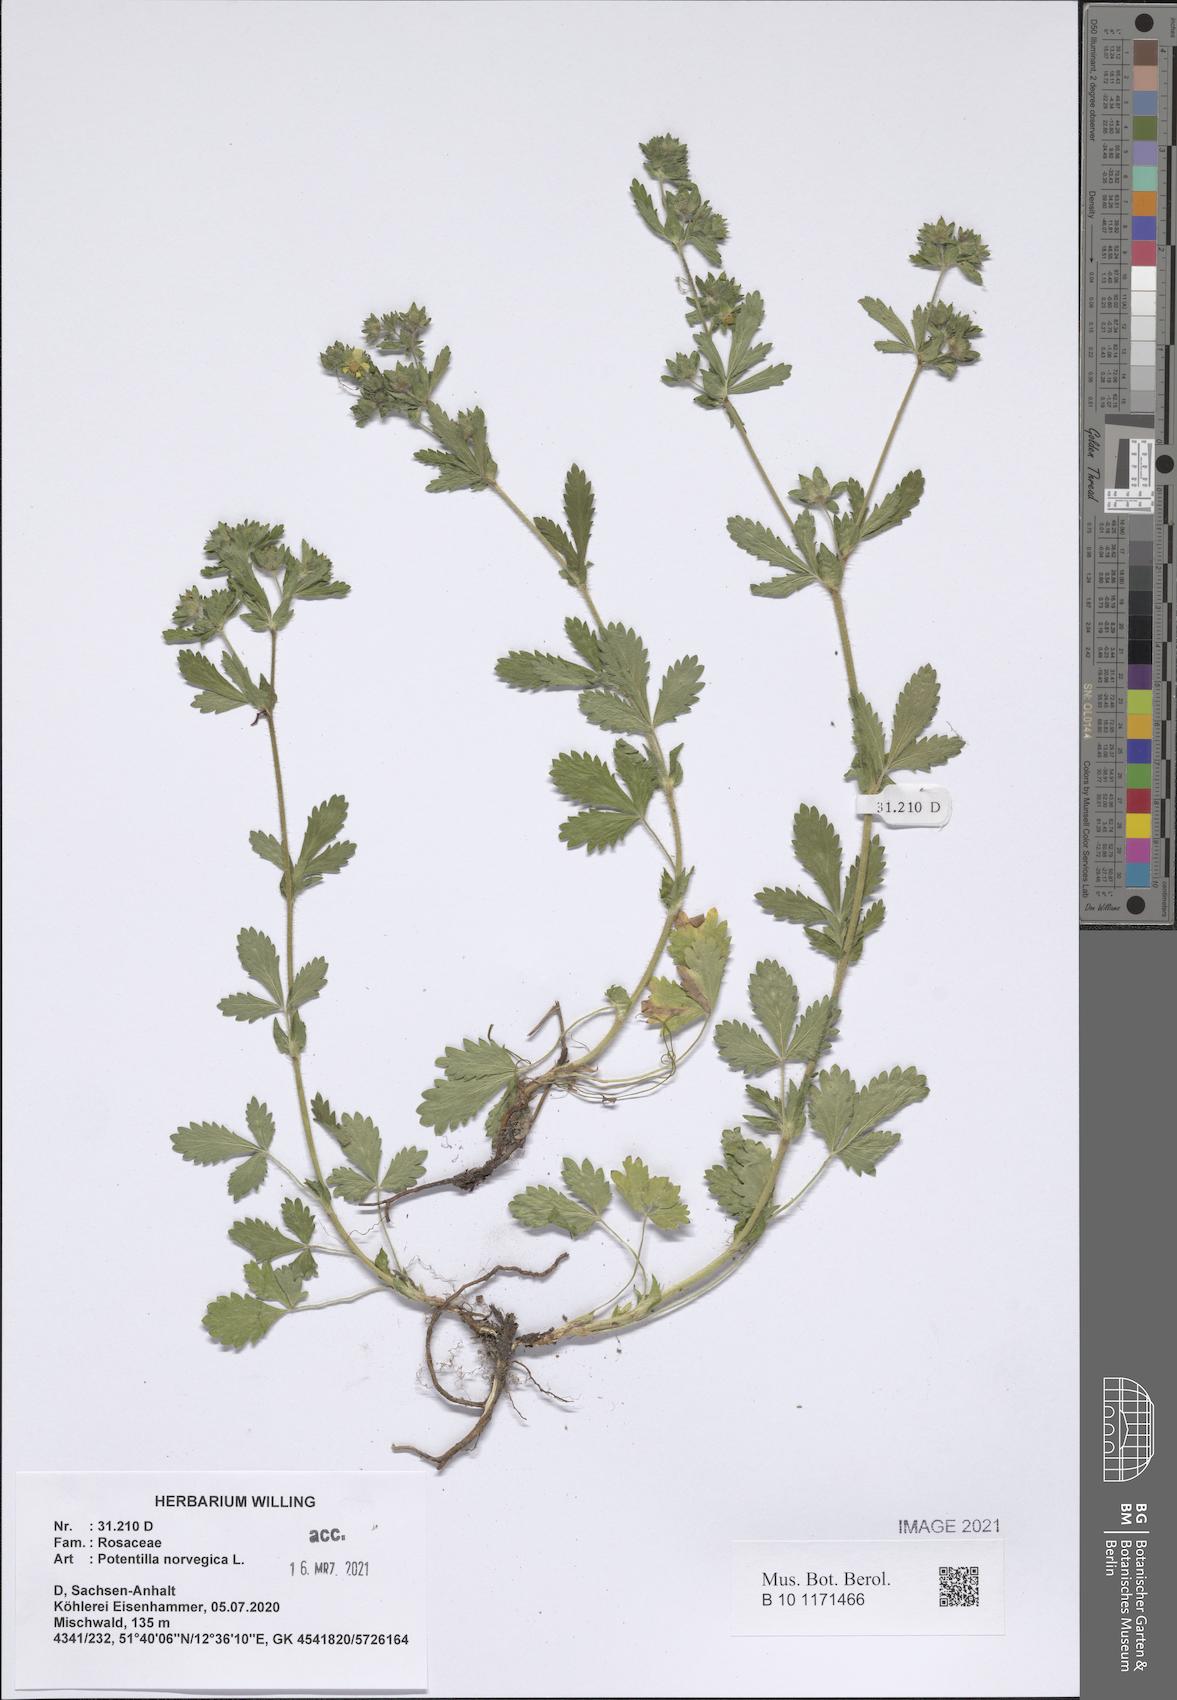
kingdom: Plantae
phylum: Tracheophyta
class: Magnoliopsida
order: Rosales
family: Rosaceae
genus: Potentilla
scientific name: Potentilla norvegica
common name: Ternate-leaved cinquefoil
